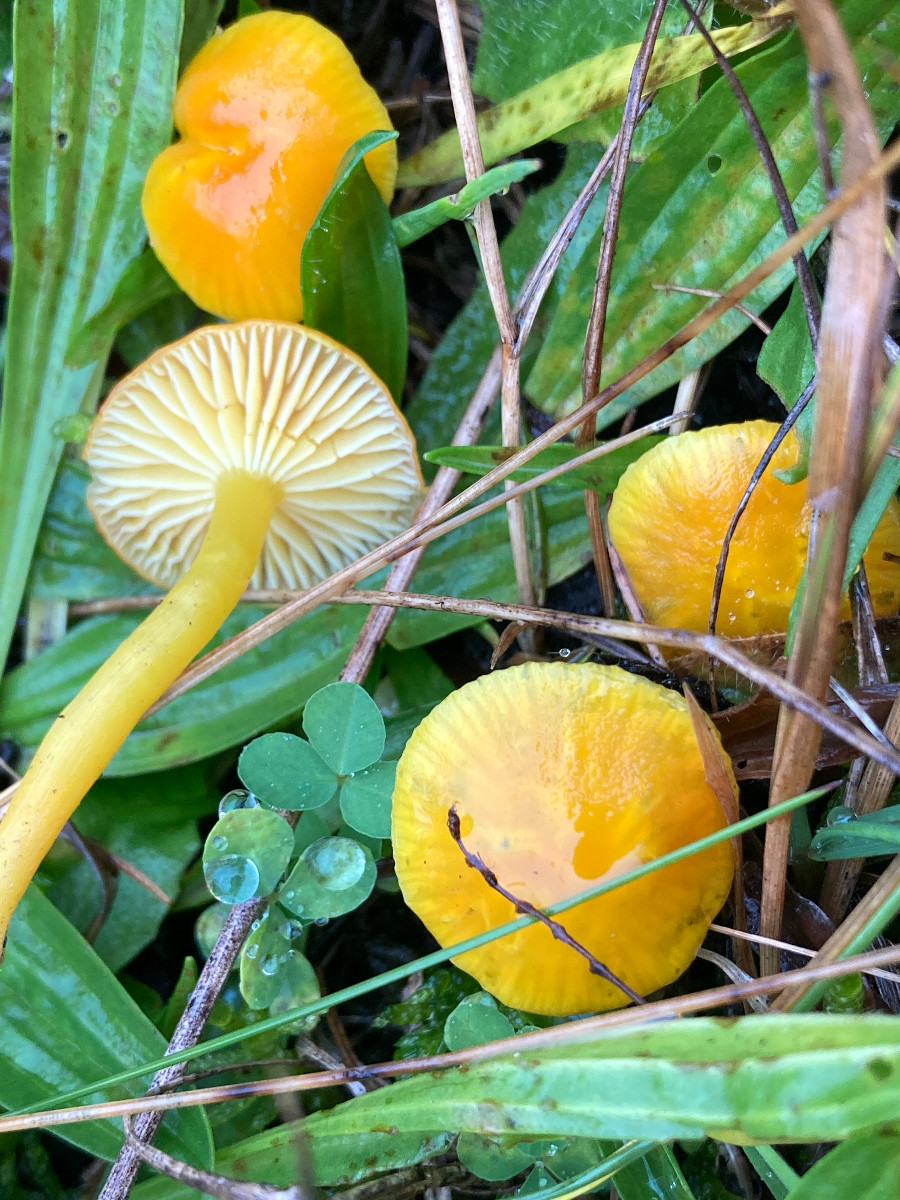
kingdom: Fungi
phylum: Basidiomycota
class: Agaricomycetes
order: Agaricales
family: Hygrophoraceae
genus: Hygrocybe
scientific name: Hygrocybe ceracea
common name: voksgul vokshat
